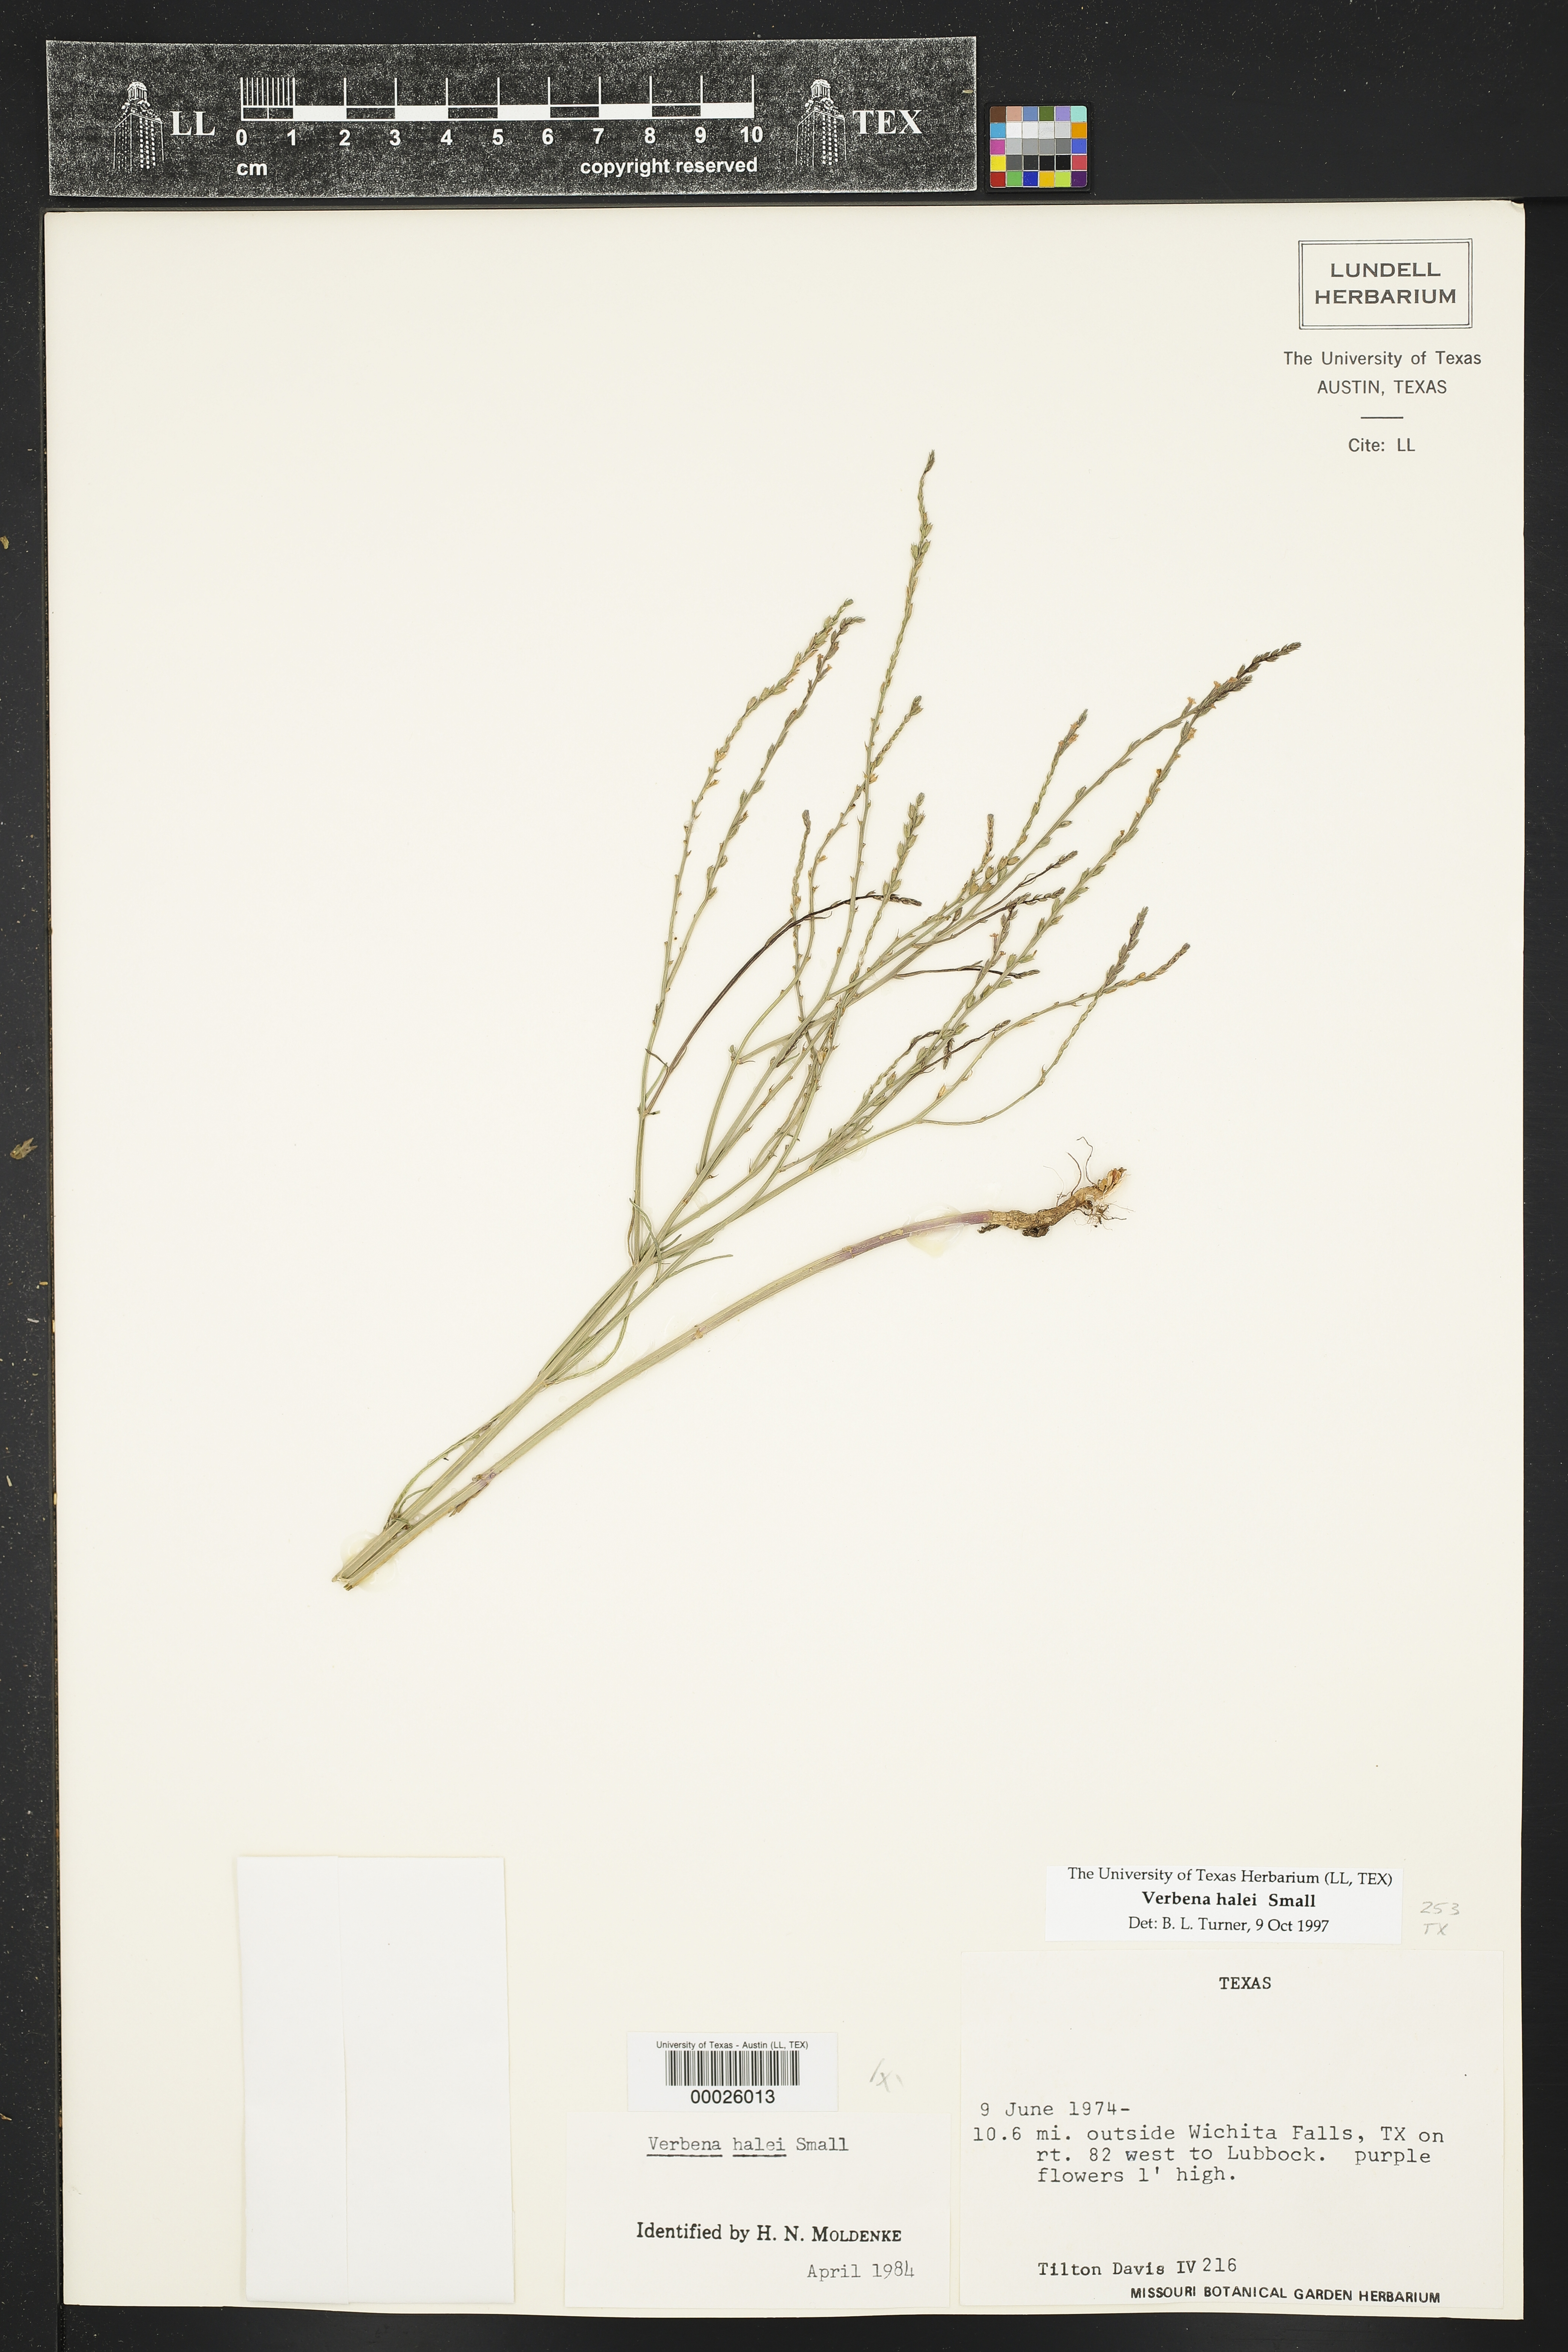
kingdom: Plantae
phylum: Tracheophyta
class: Magnoliopsida
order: Lamiales
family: Verbenaceae
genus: Verbena
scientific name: Verbena halei
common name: Texas vervain
